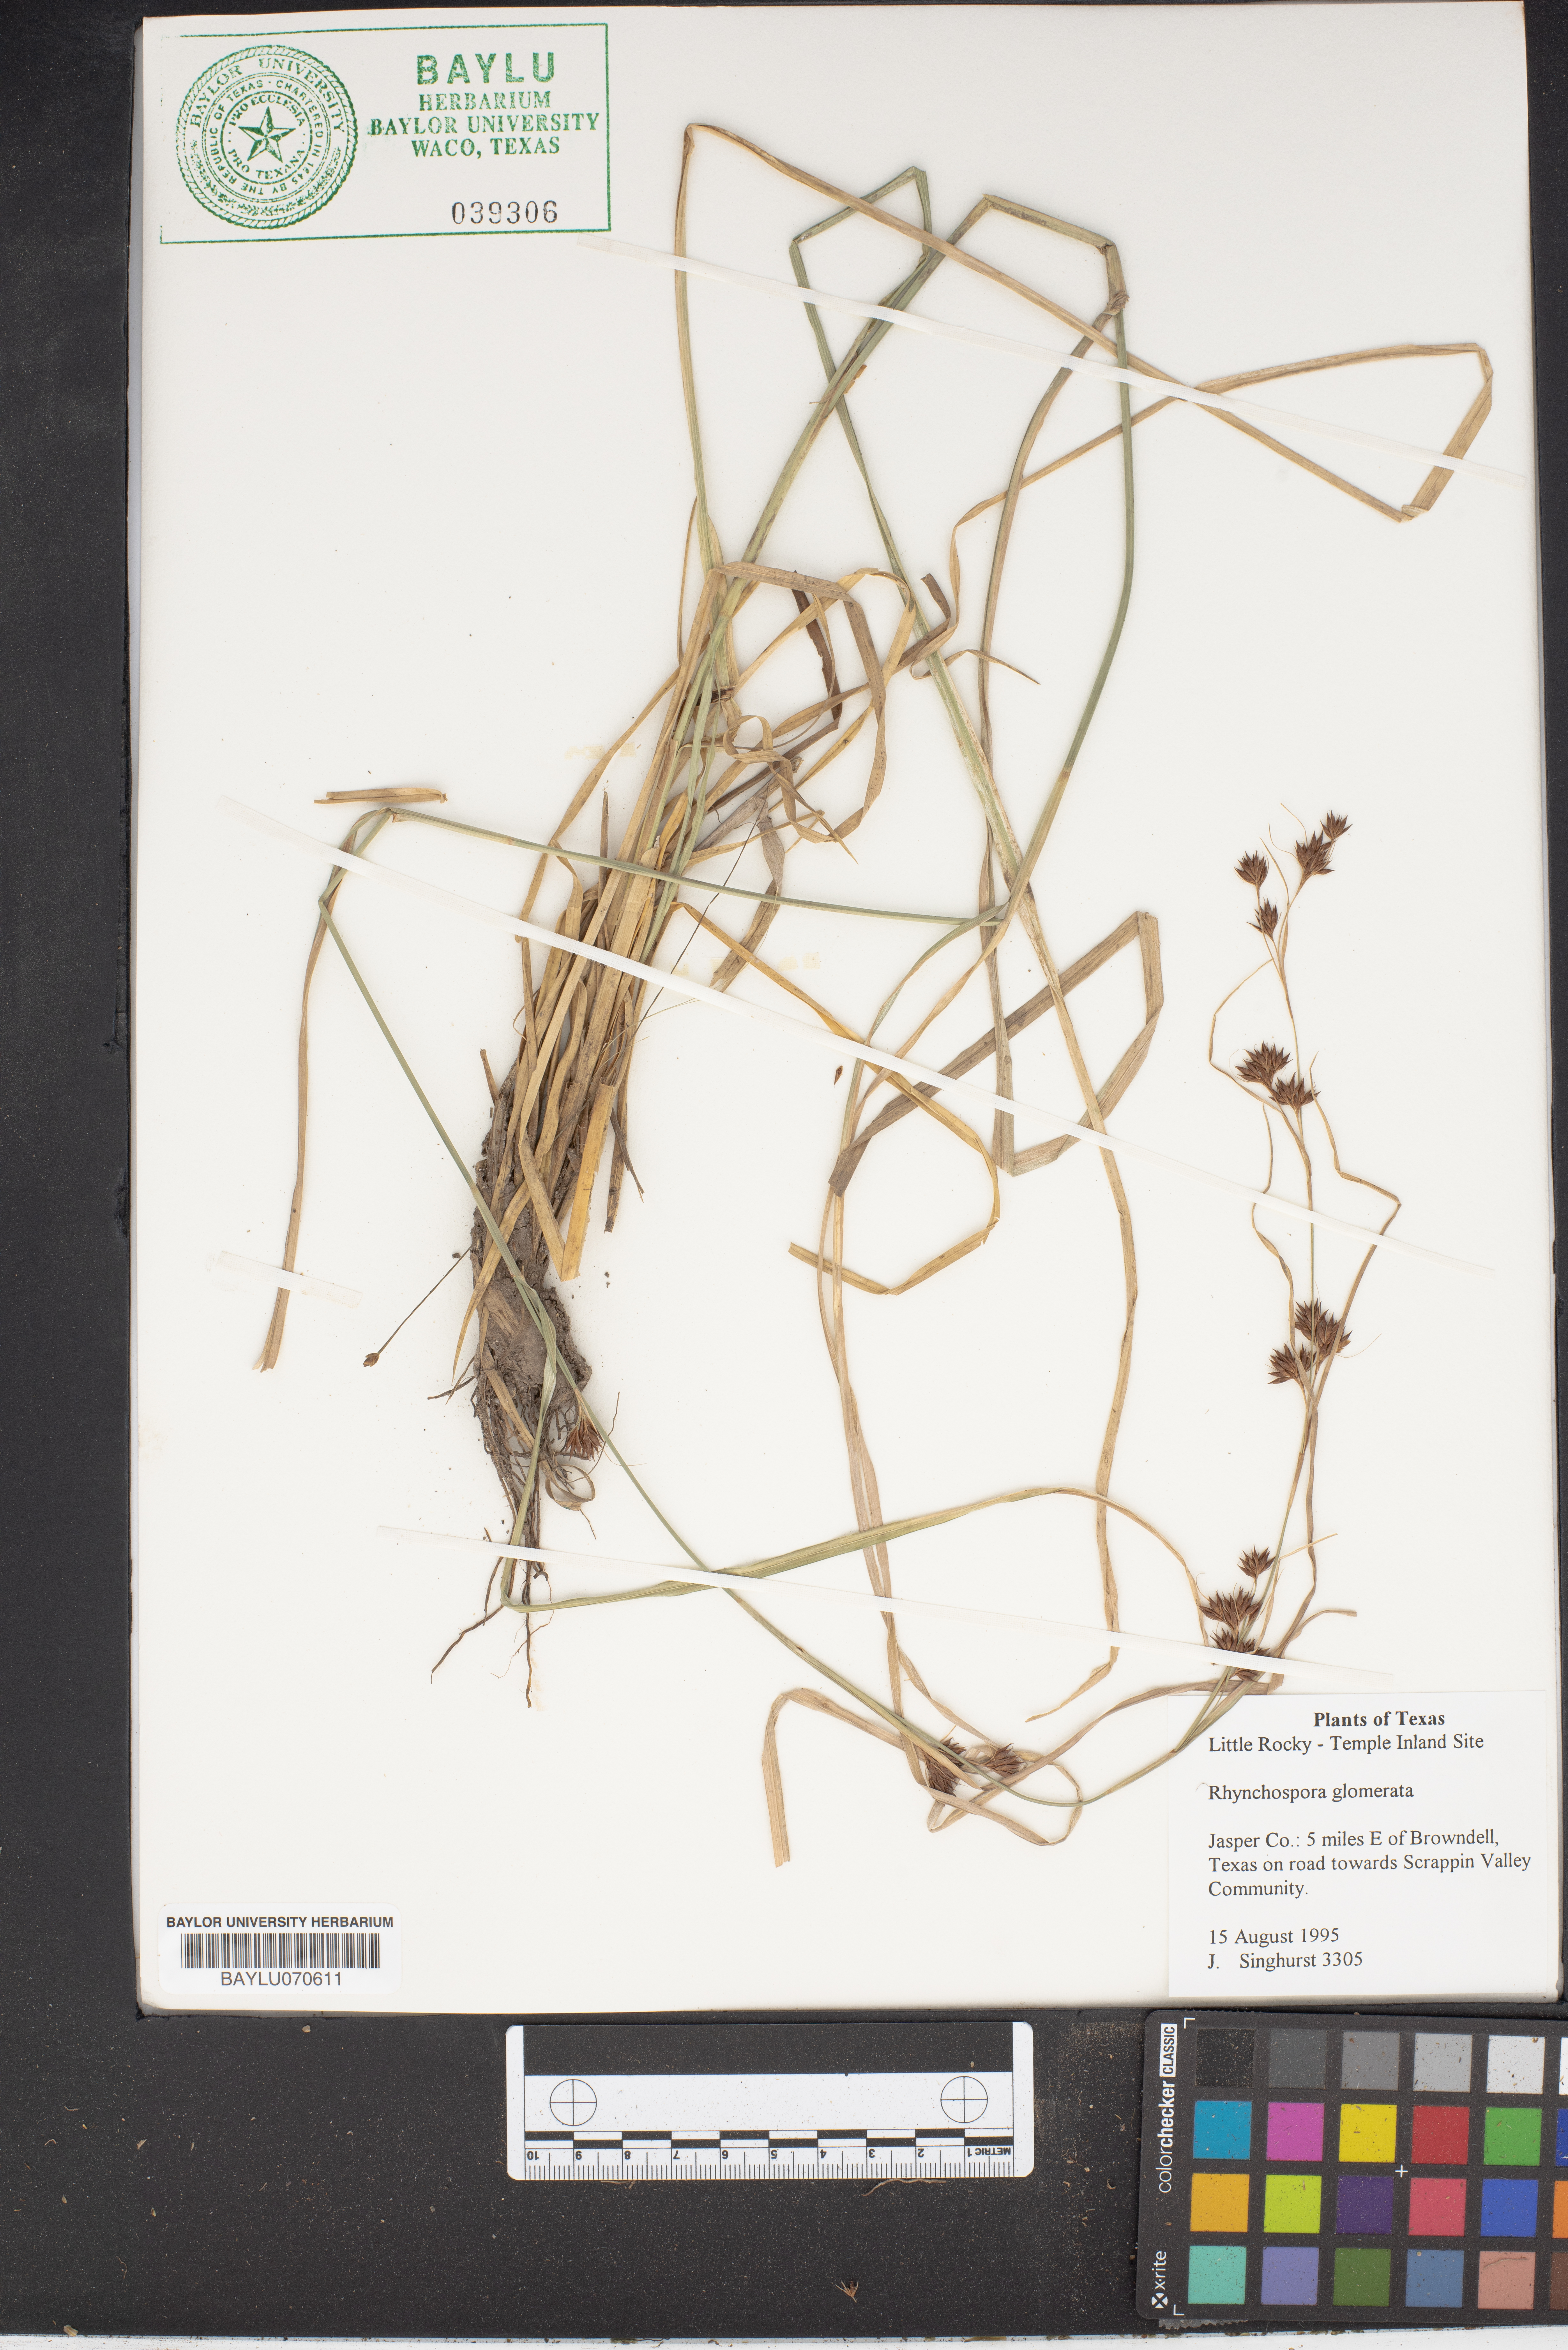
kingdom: Plantae
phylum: Tracheophyta
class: Liliopsida
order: Poales
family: Cyperaceae
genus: Rhynchospora
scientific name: Rhynchospora glomerata
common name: Cluster beak sedge
